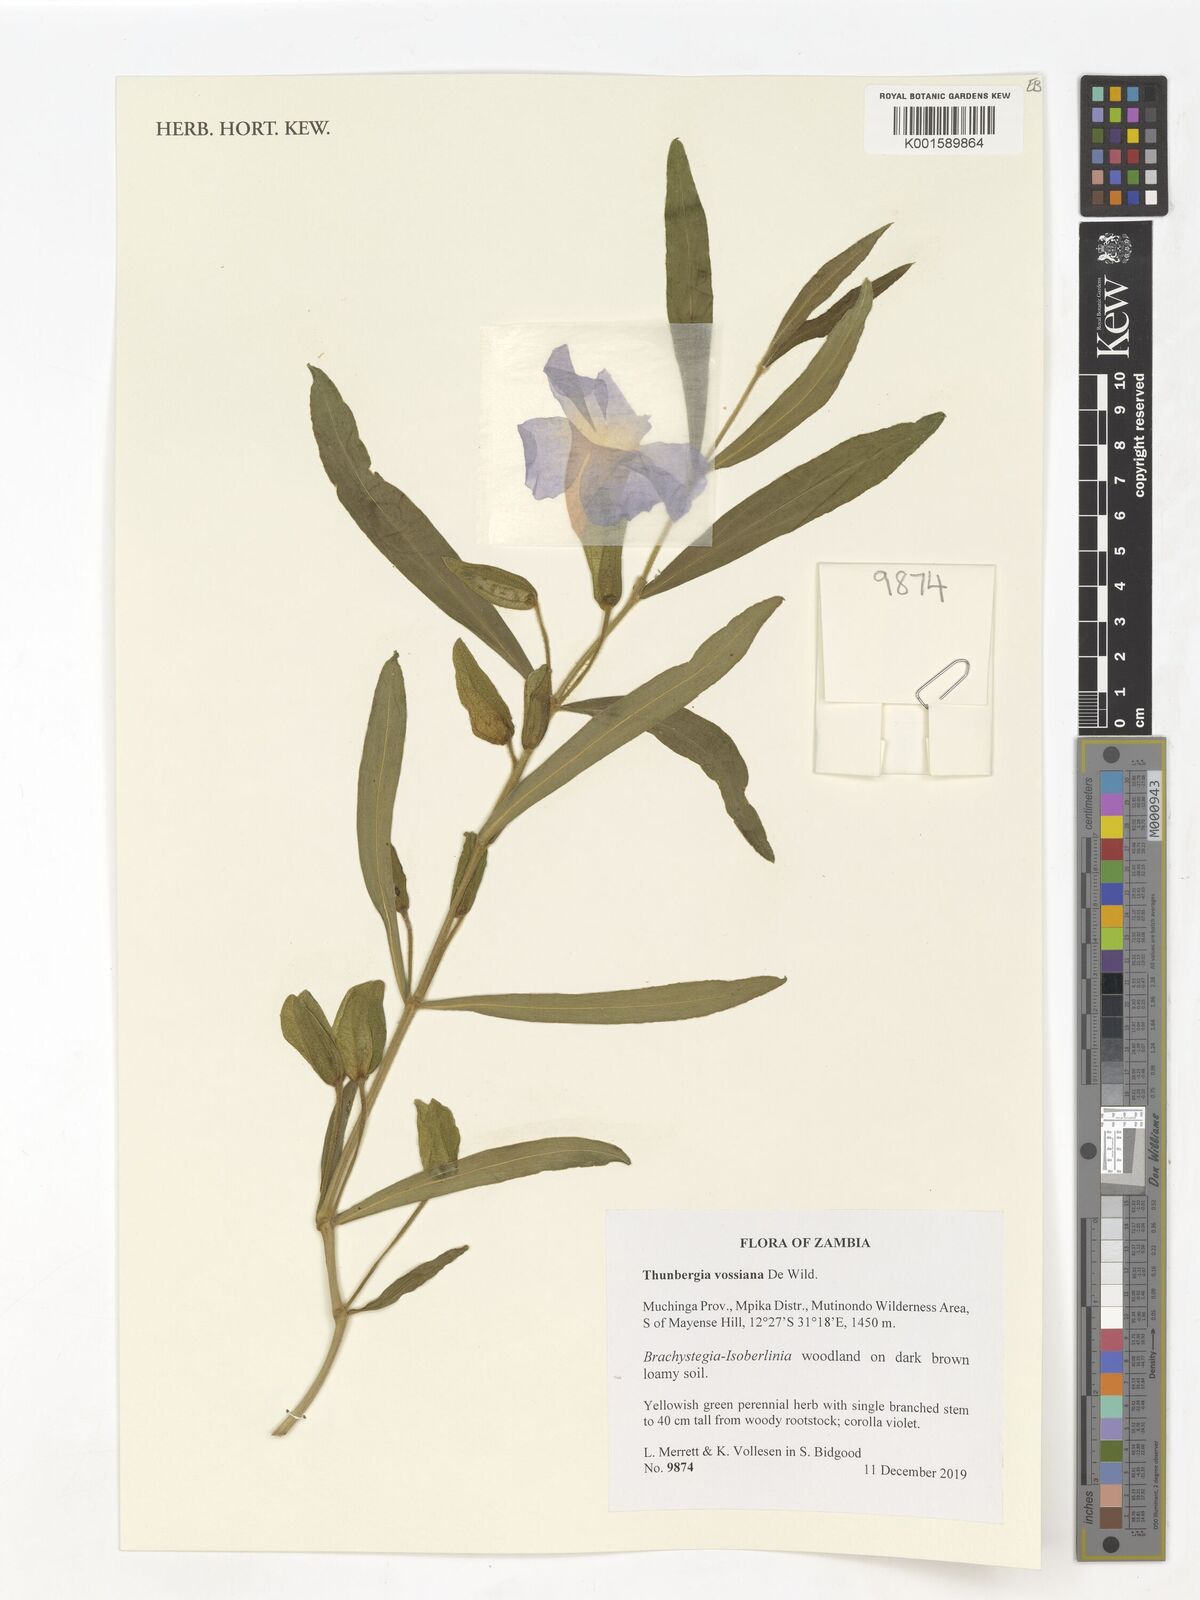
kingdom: Plantae
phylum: Tracheophyta
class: Magnoliopsida
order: Lamiales
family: Acanthaceae
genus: Thunbergia
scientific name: Thunbergia vossiana
